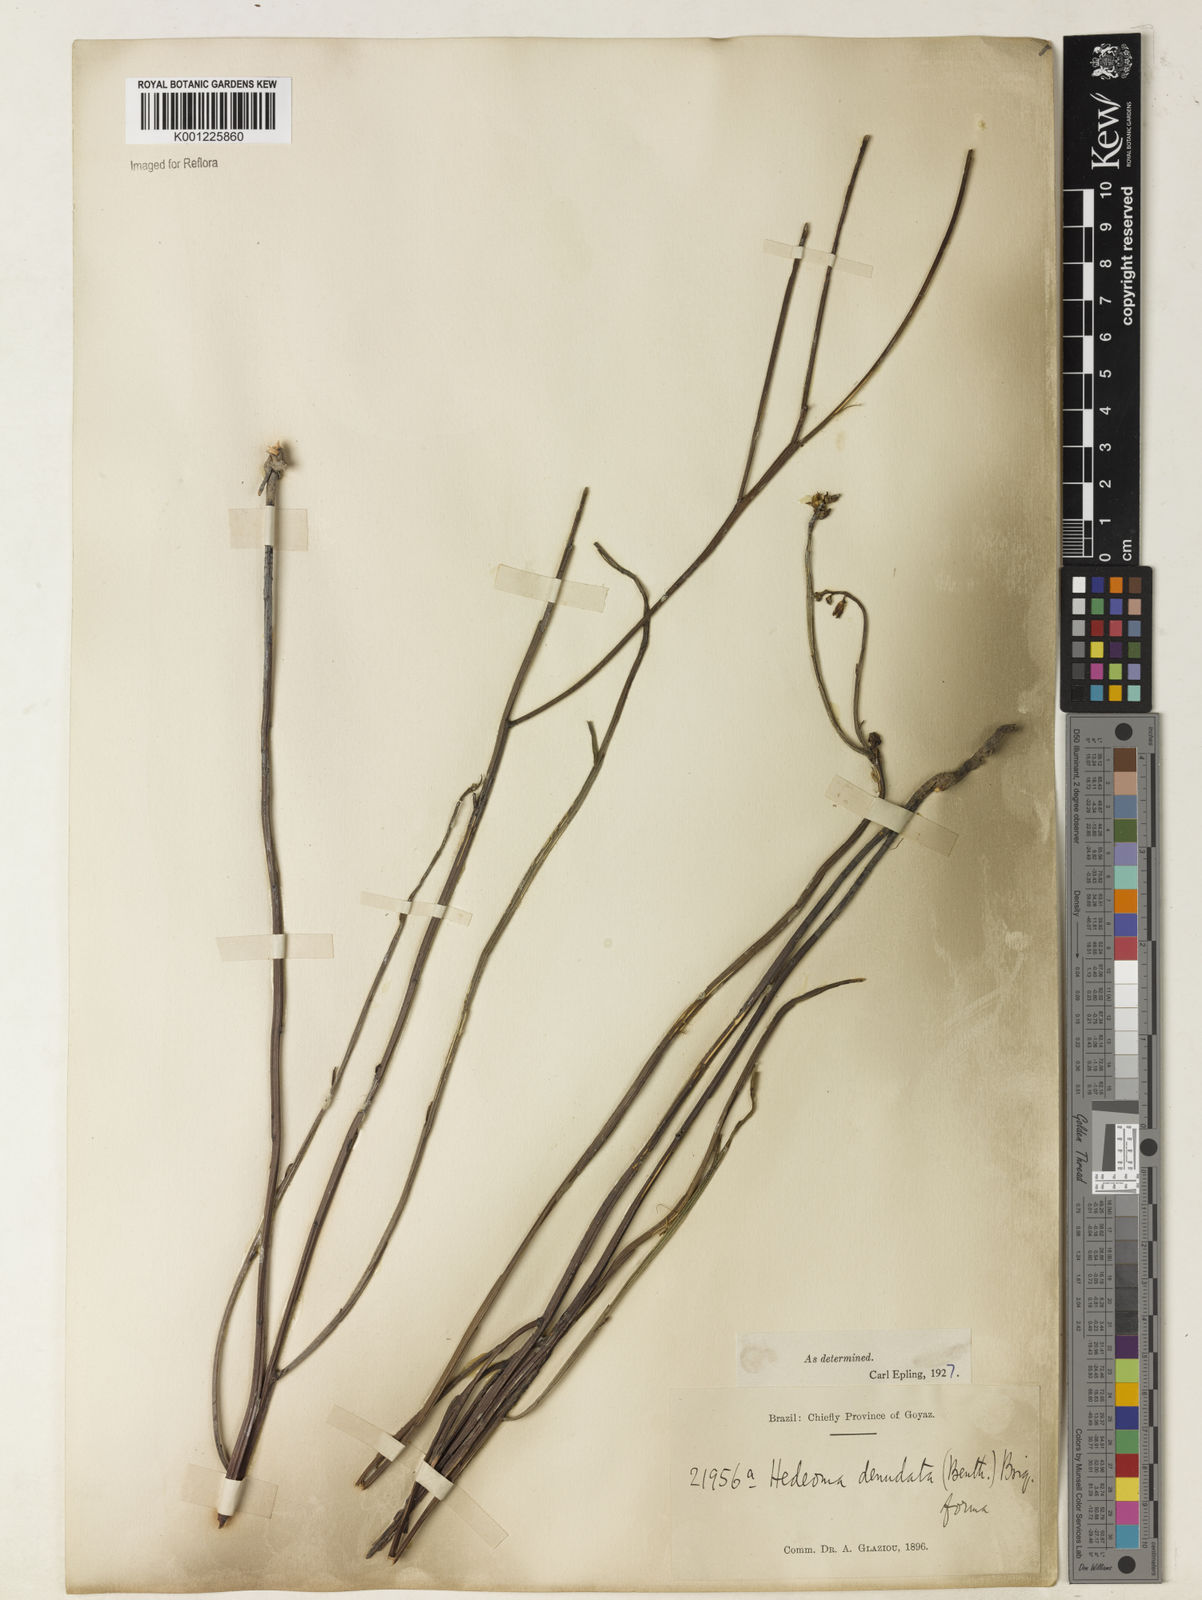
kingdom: Plantae
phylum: Tracheophyta
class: Magnoliopsida
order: Lamiales
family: Lamiaceae
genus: Rhabdocaulon
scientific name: Rhabdocaulon denudatum
